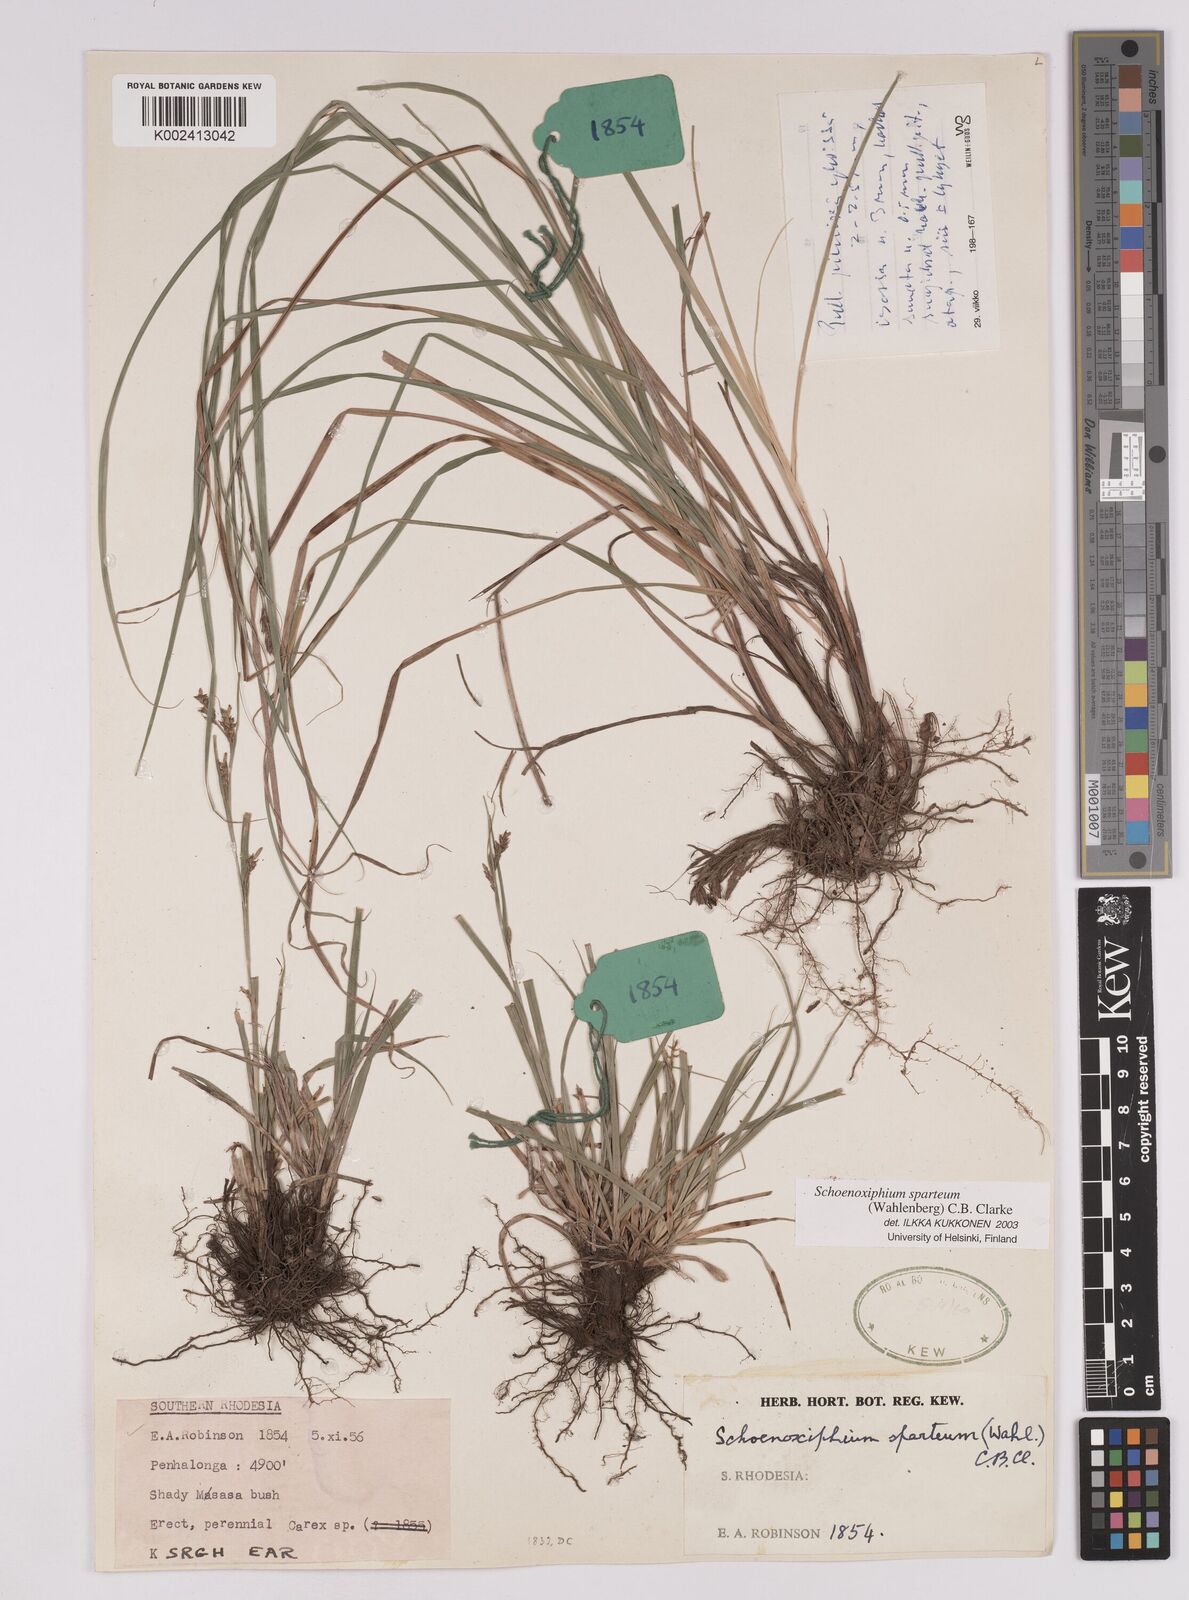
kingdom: Plantae
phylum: Tracheophyta
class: Liliopsida
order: Poales
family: Cyperaceae
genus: Carex
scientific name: Carex spartea
